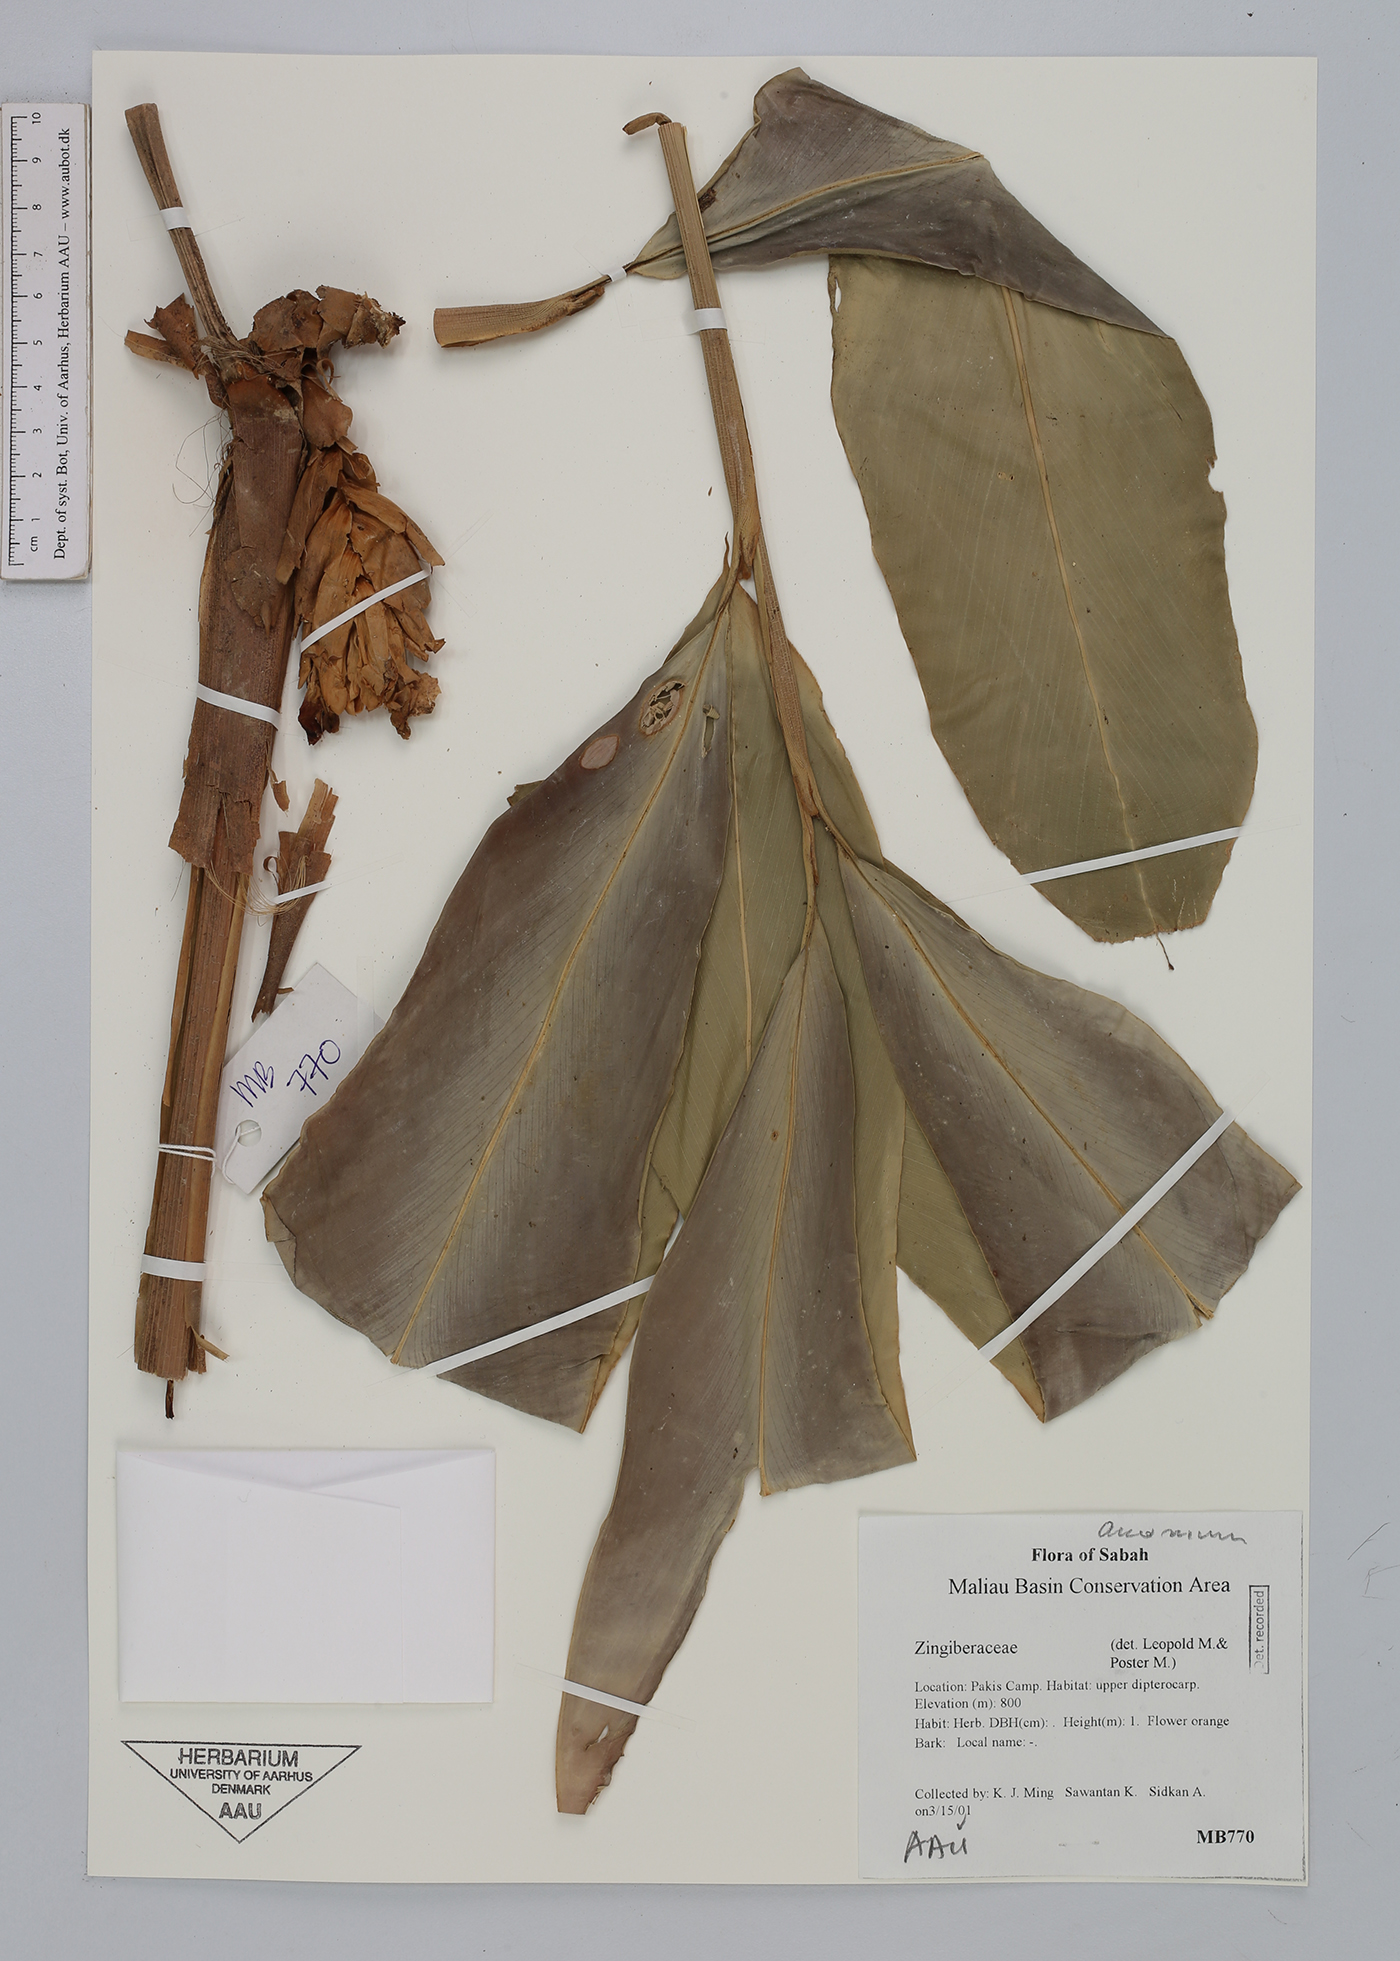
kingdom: Plantae
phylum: Tracheophyta
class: Liliopsida
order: Zingiberales
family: Zingiberaceae
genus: Amomum
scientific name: Amomum
